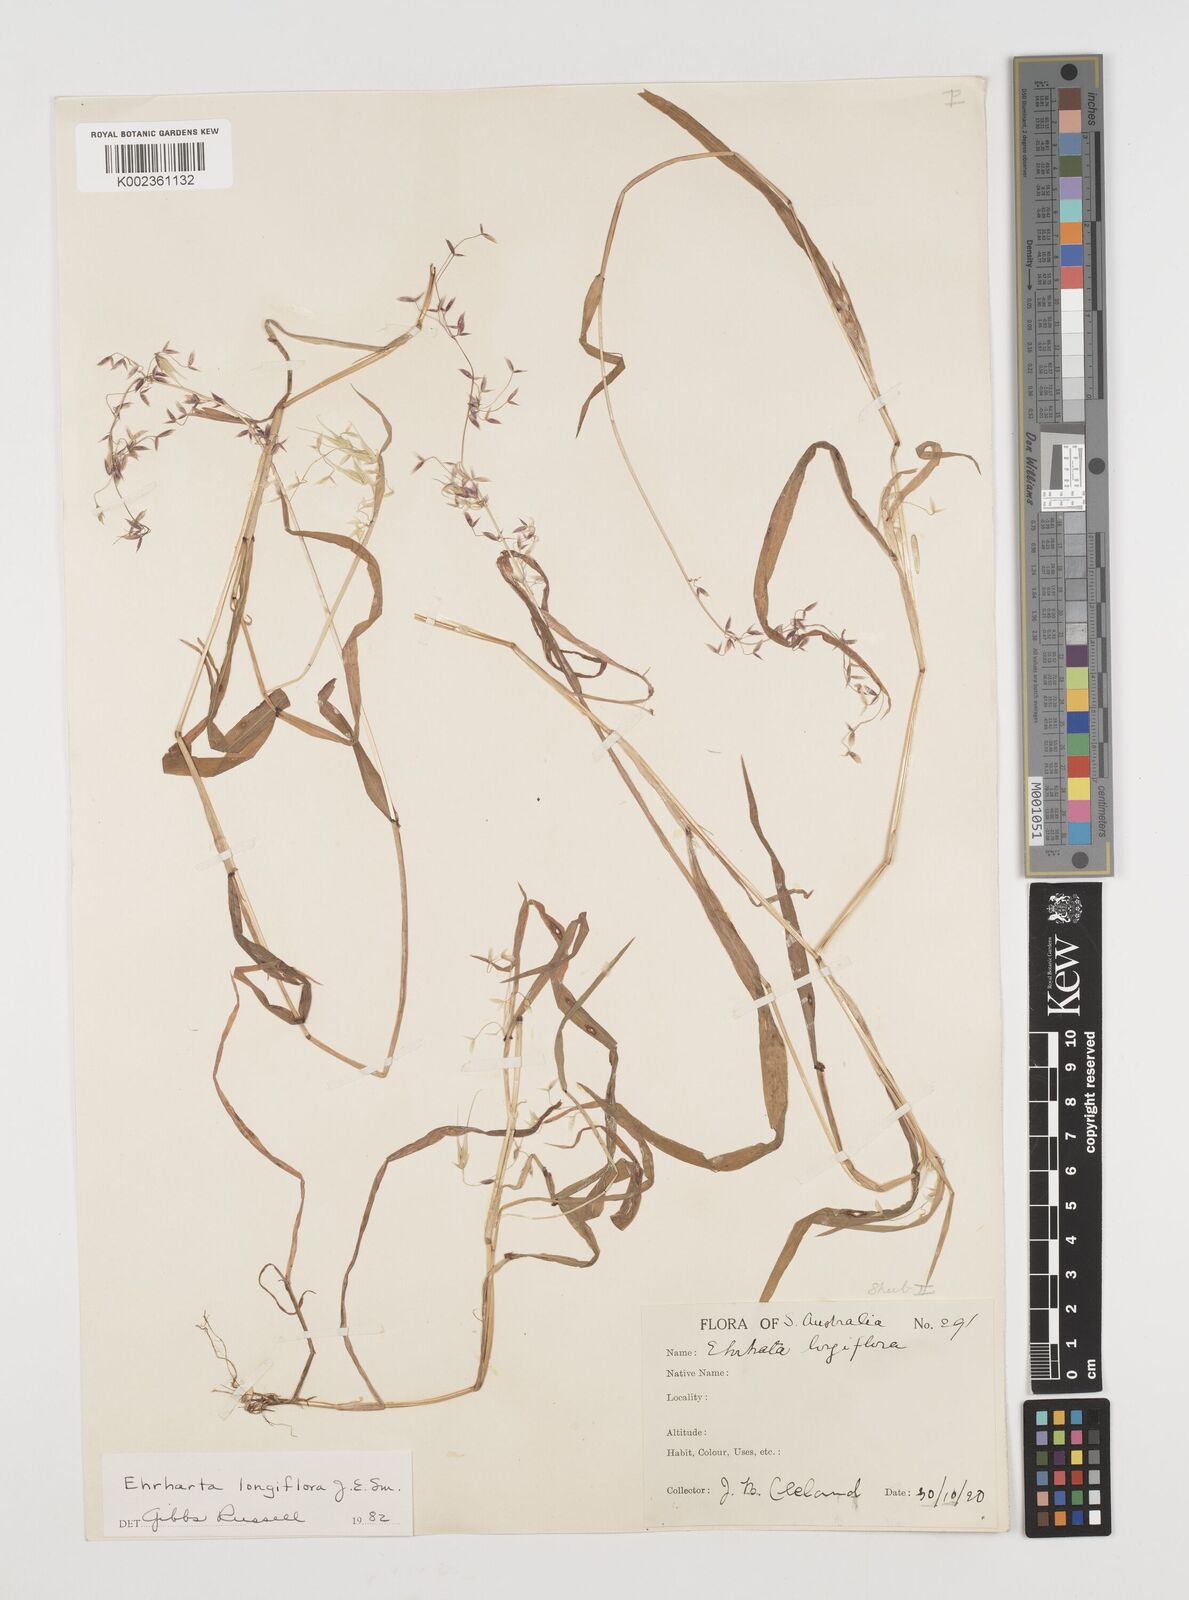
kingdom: Plantae
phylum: Tracheophyta
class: Liliopsida
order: Poales
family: Poaceae
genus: Ehrharta
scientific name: Ehrharta longiflora
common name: Longflowered veldtgrass
